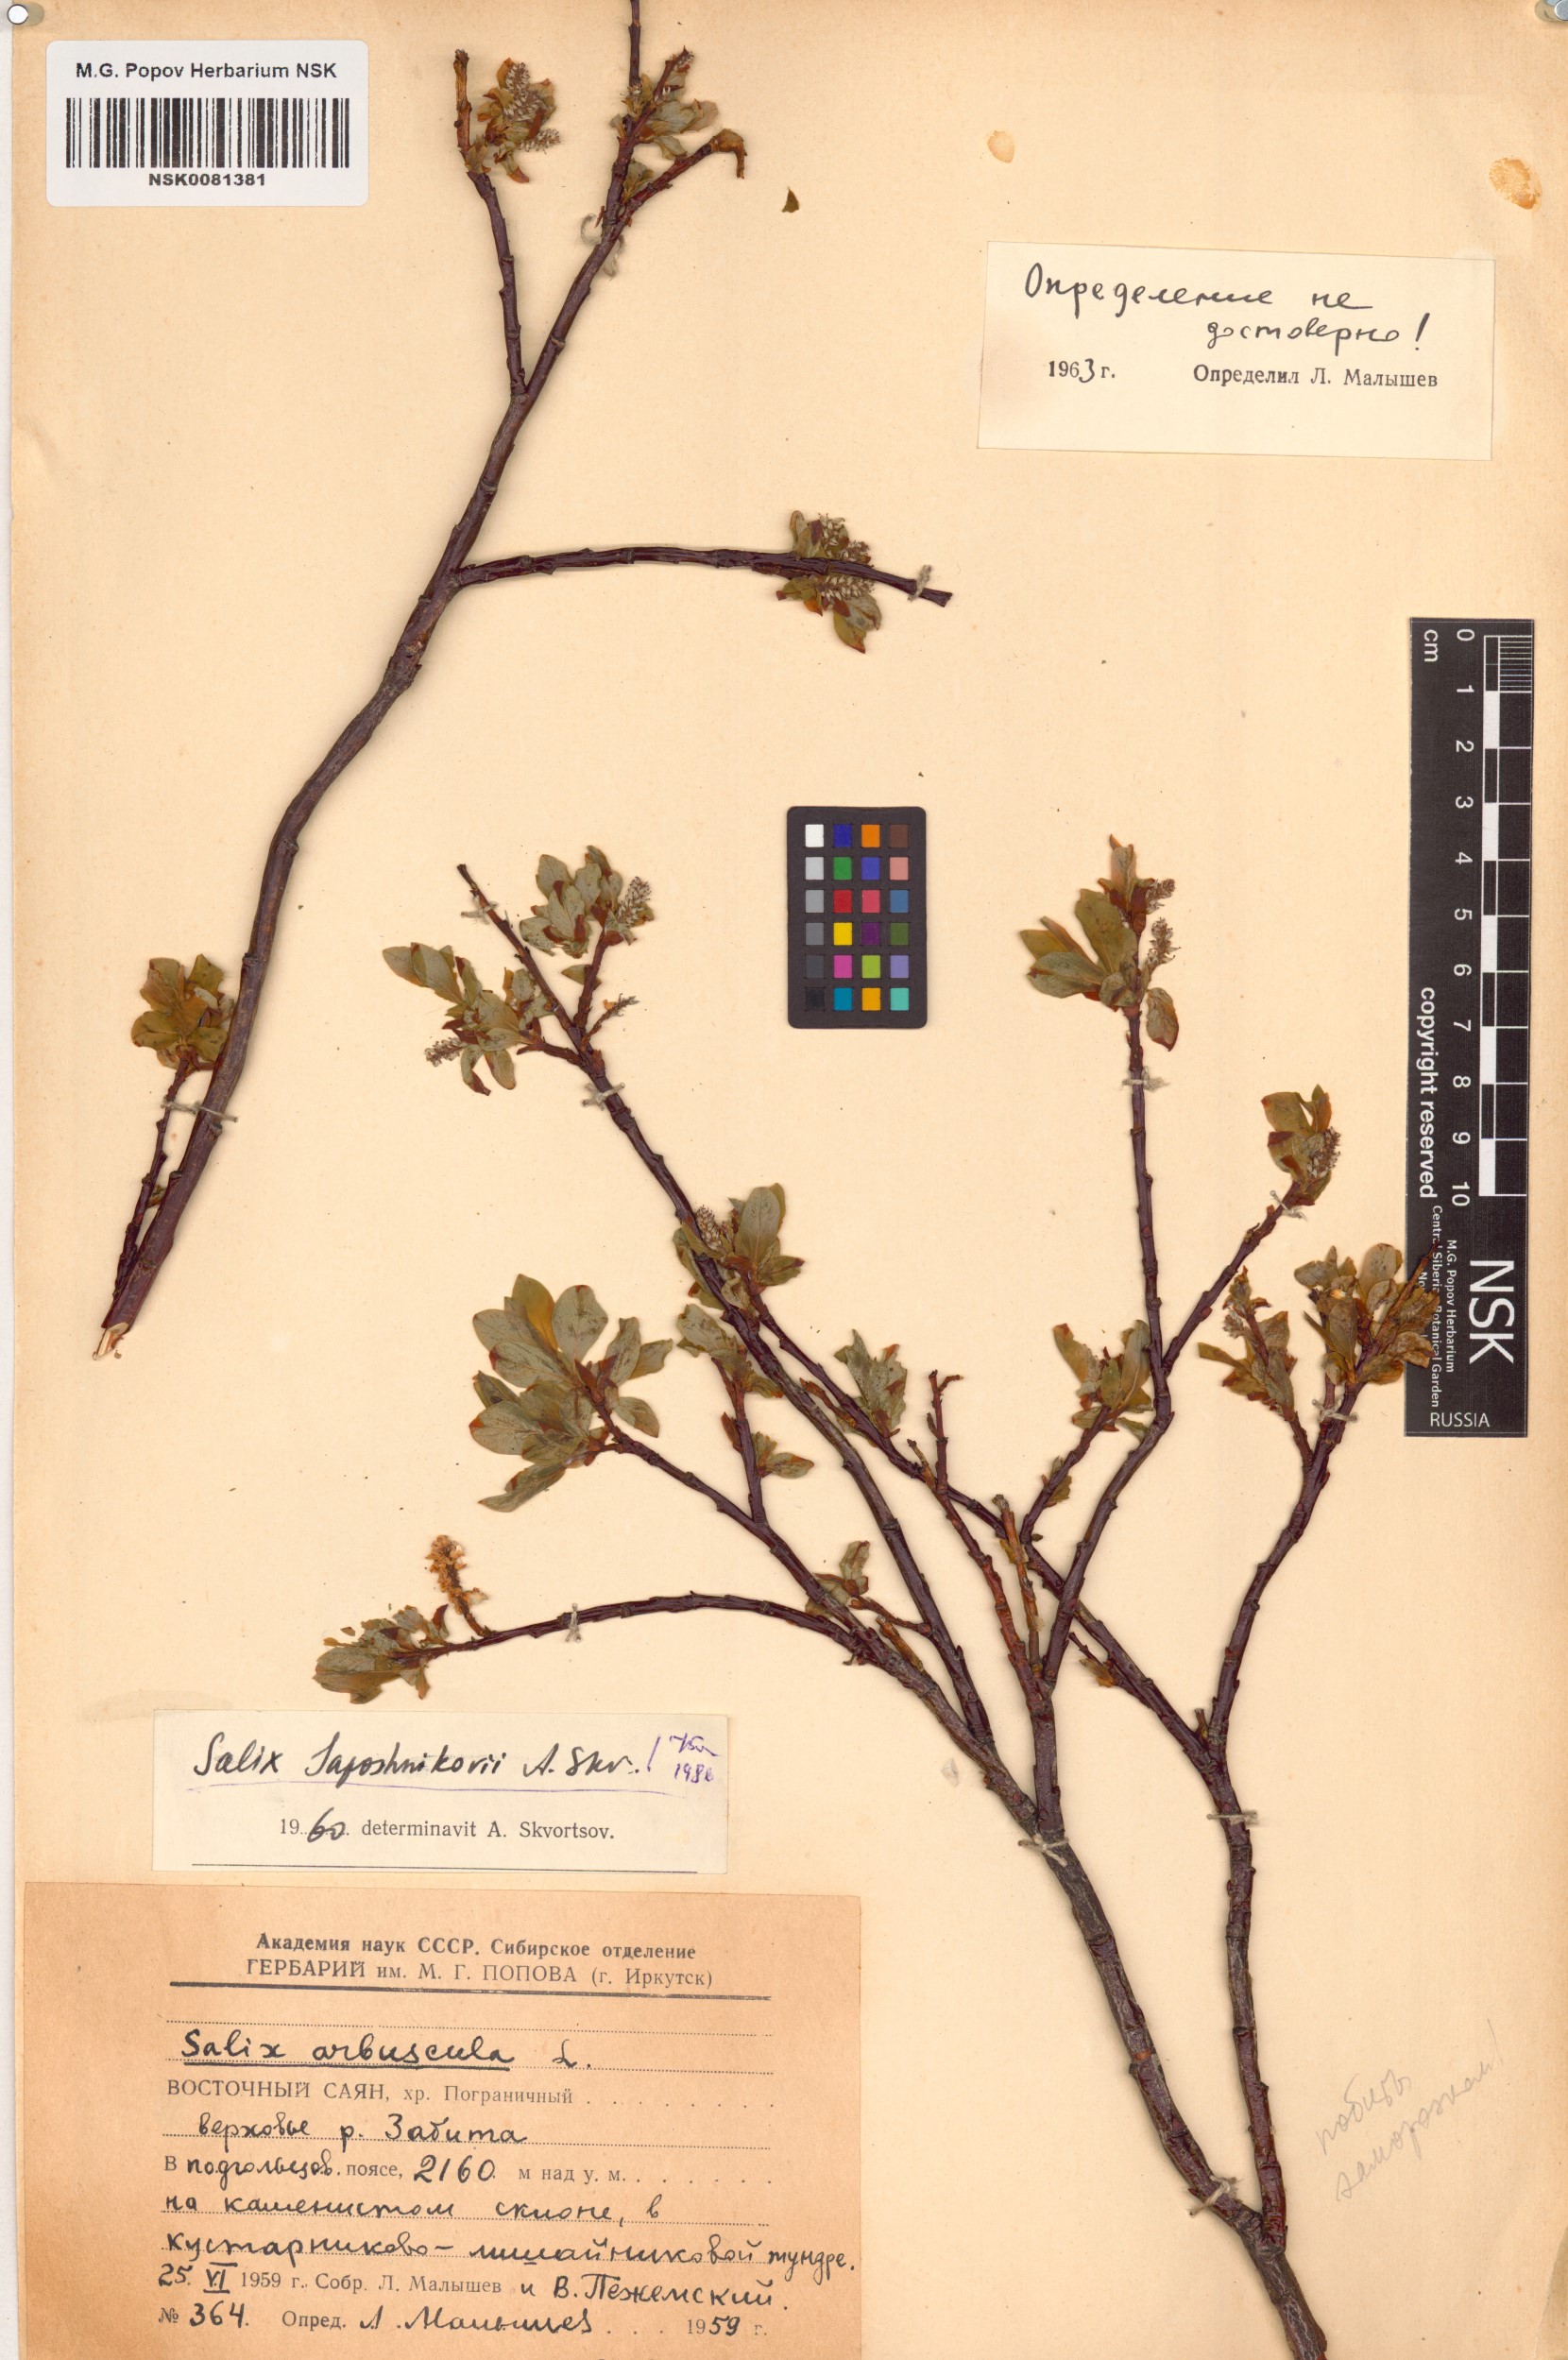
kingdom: Plantae
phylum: Tracheophyta
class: Magnoliopsida
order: Malpighiales
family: Salicaceae
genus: Salix
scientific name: Salix saposhnikovii
